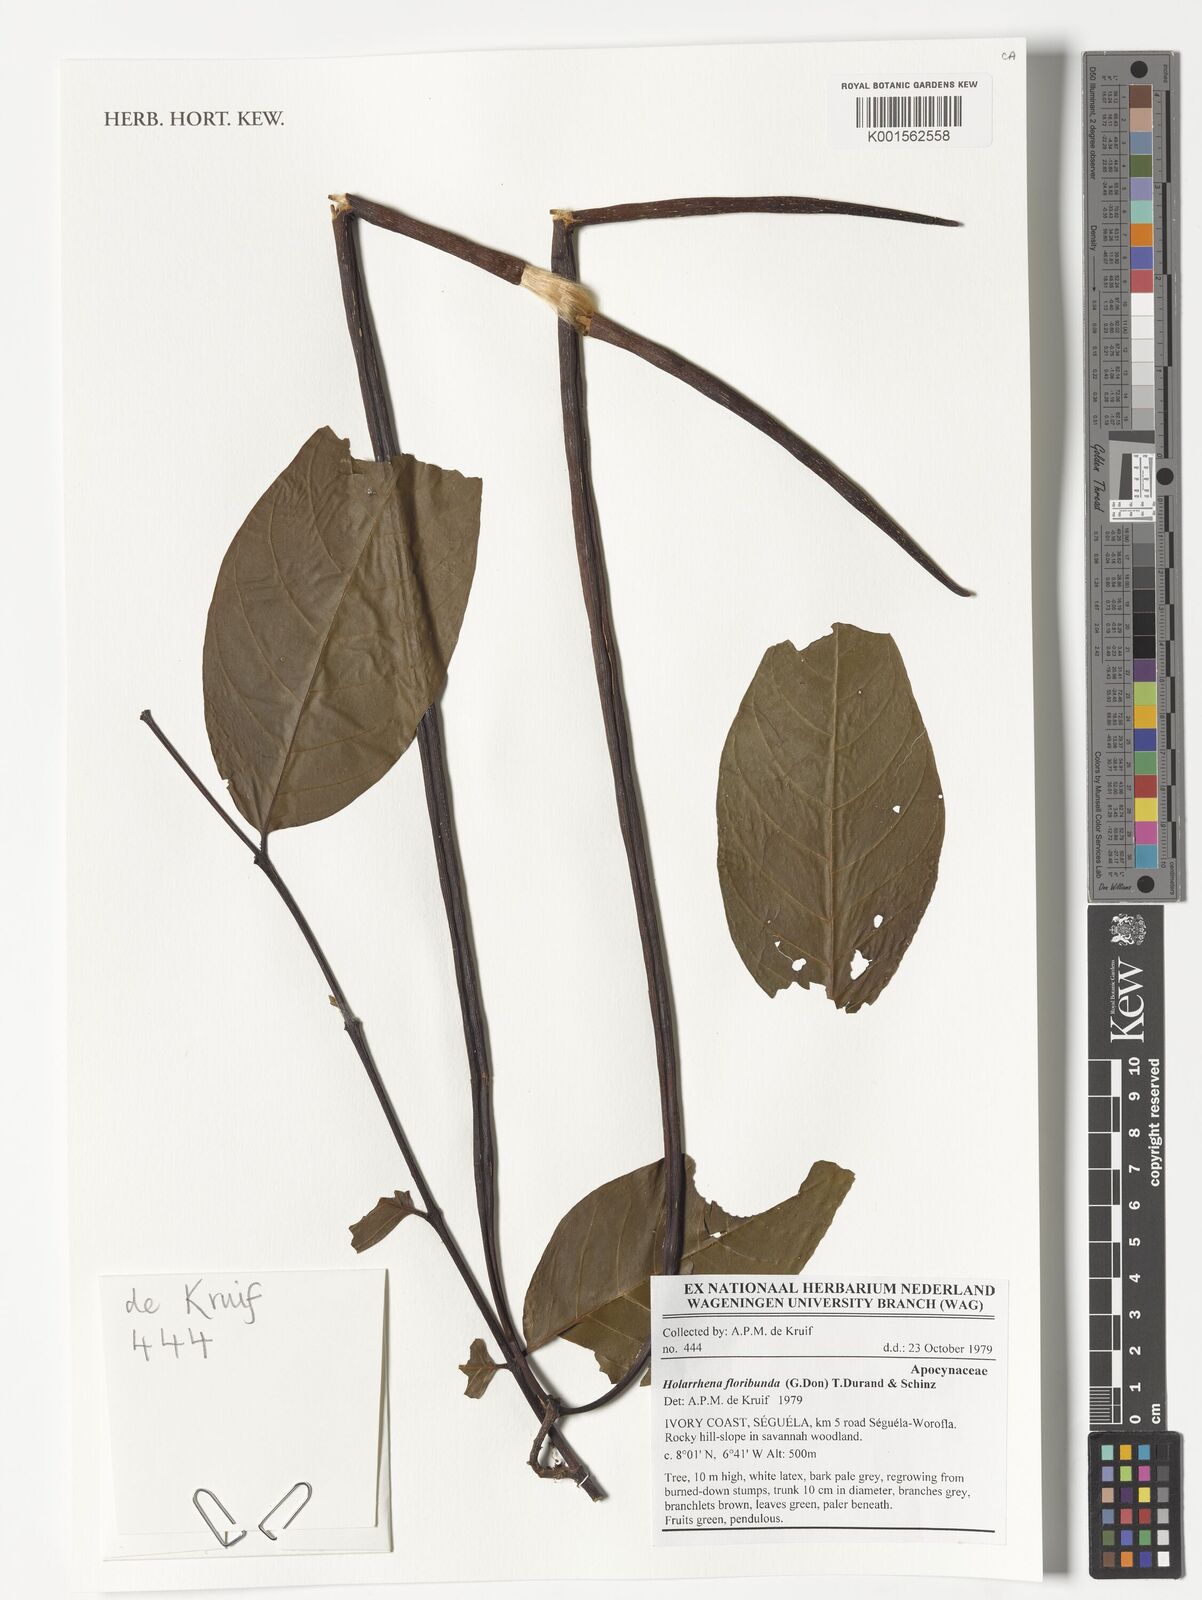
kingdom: Plantae
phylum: Tracheophyta
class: Magnoliopsida
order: Gentianales
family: Apocynaceae
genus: Holarrhena
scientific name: Holarrhena floribunda
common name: Kurchibark
